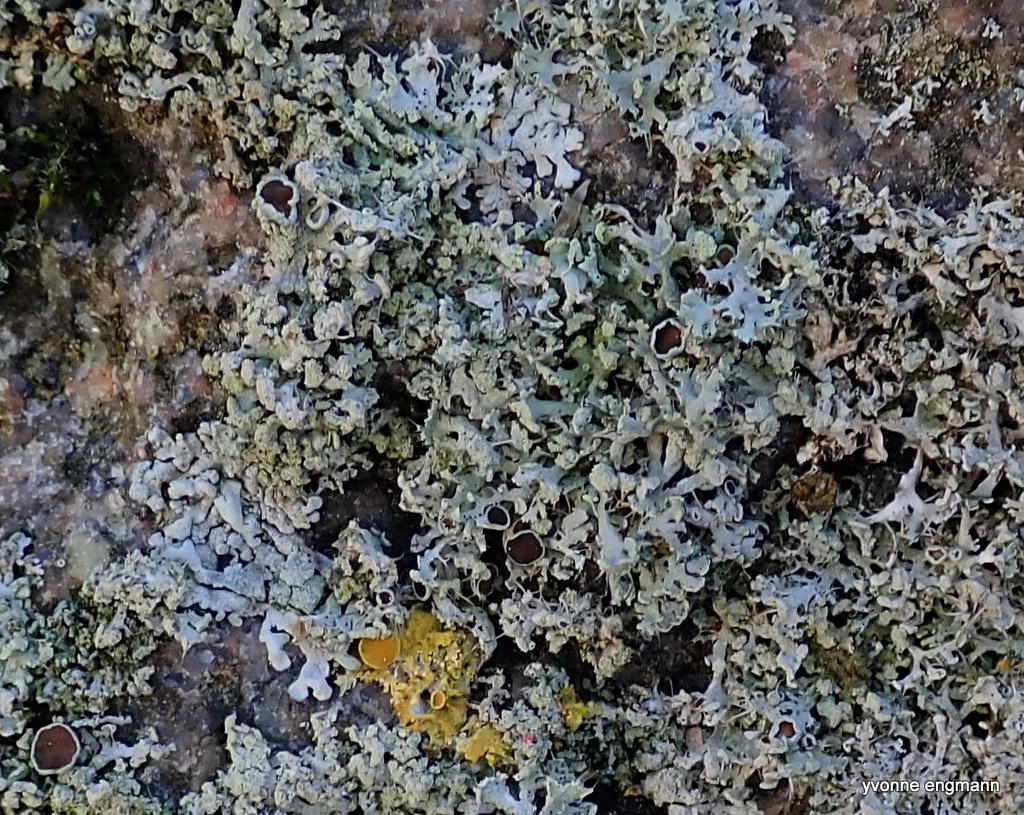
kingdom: Fungi
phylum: Ascomycota
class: Lecanoromycetes
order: Caliciales
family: Physciaceae
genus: Physcia
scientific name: Physcia tenella
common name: spæd rosetlav
